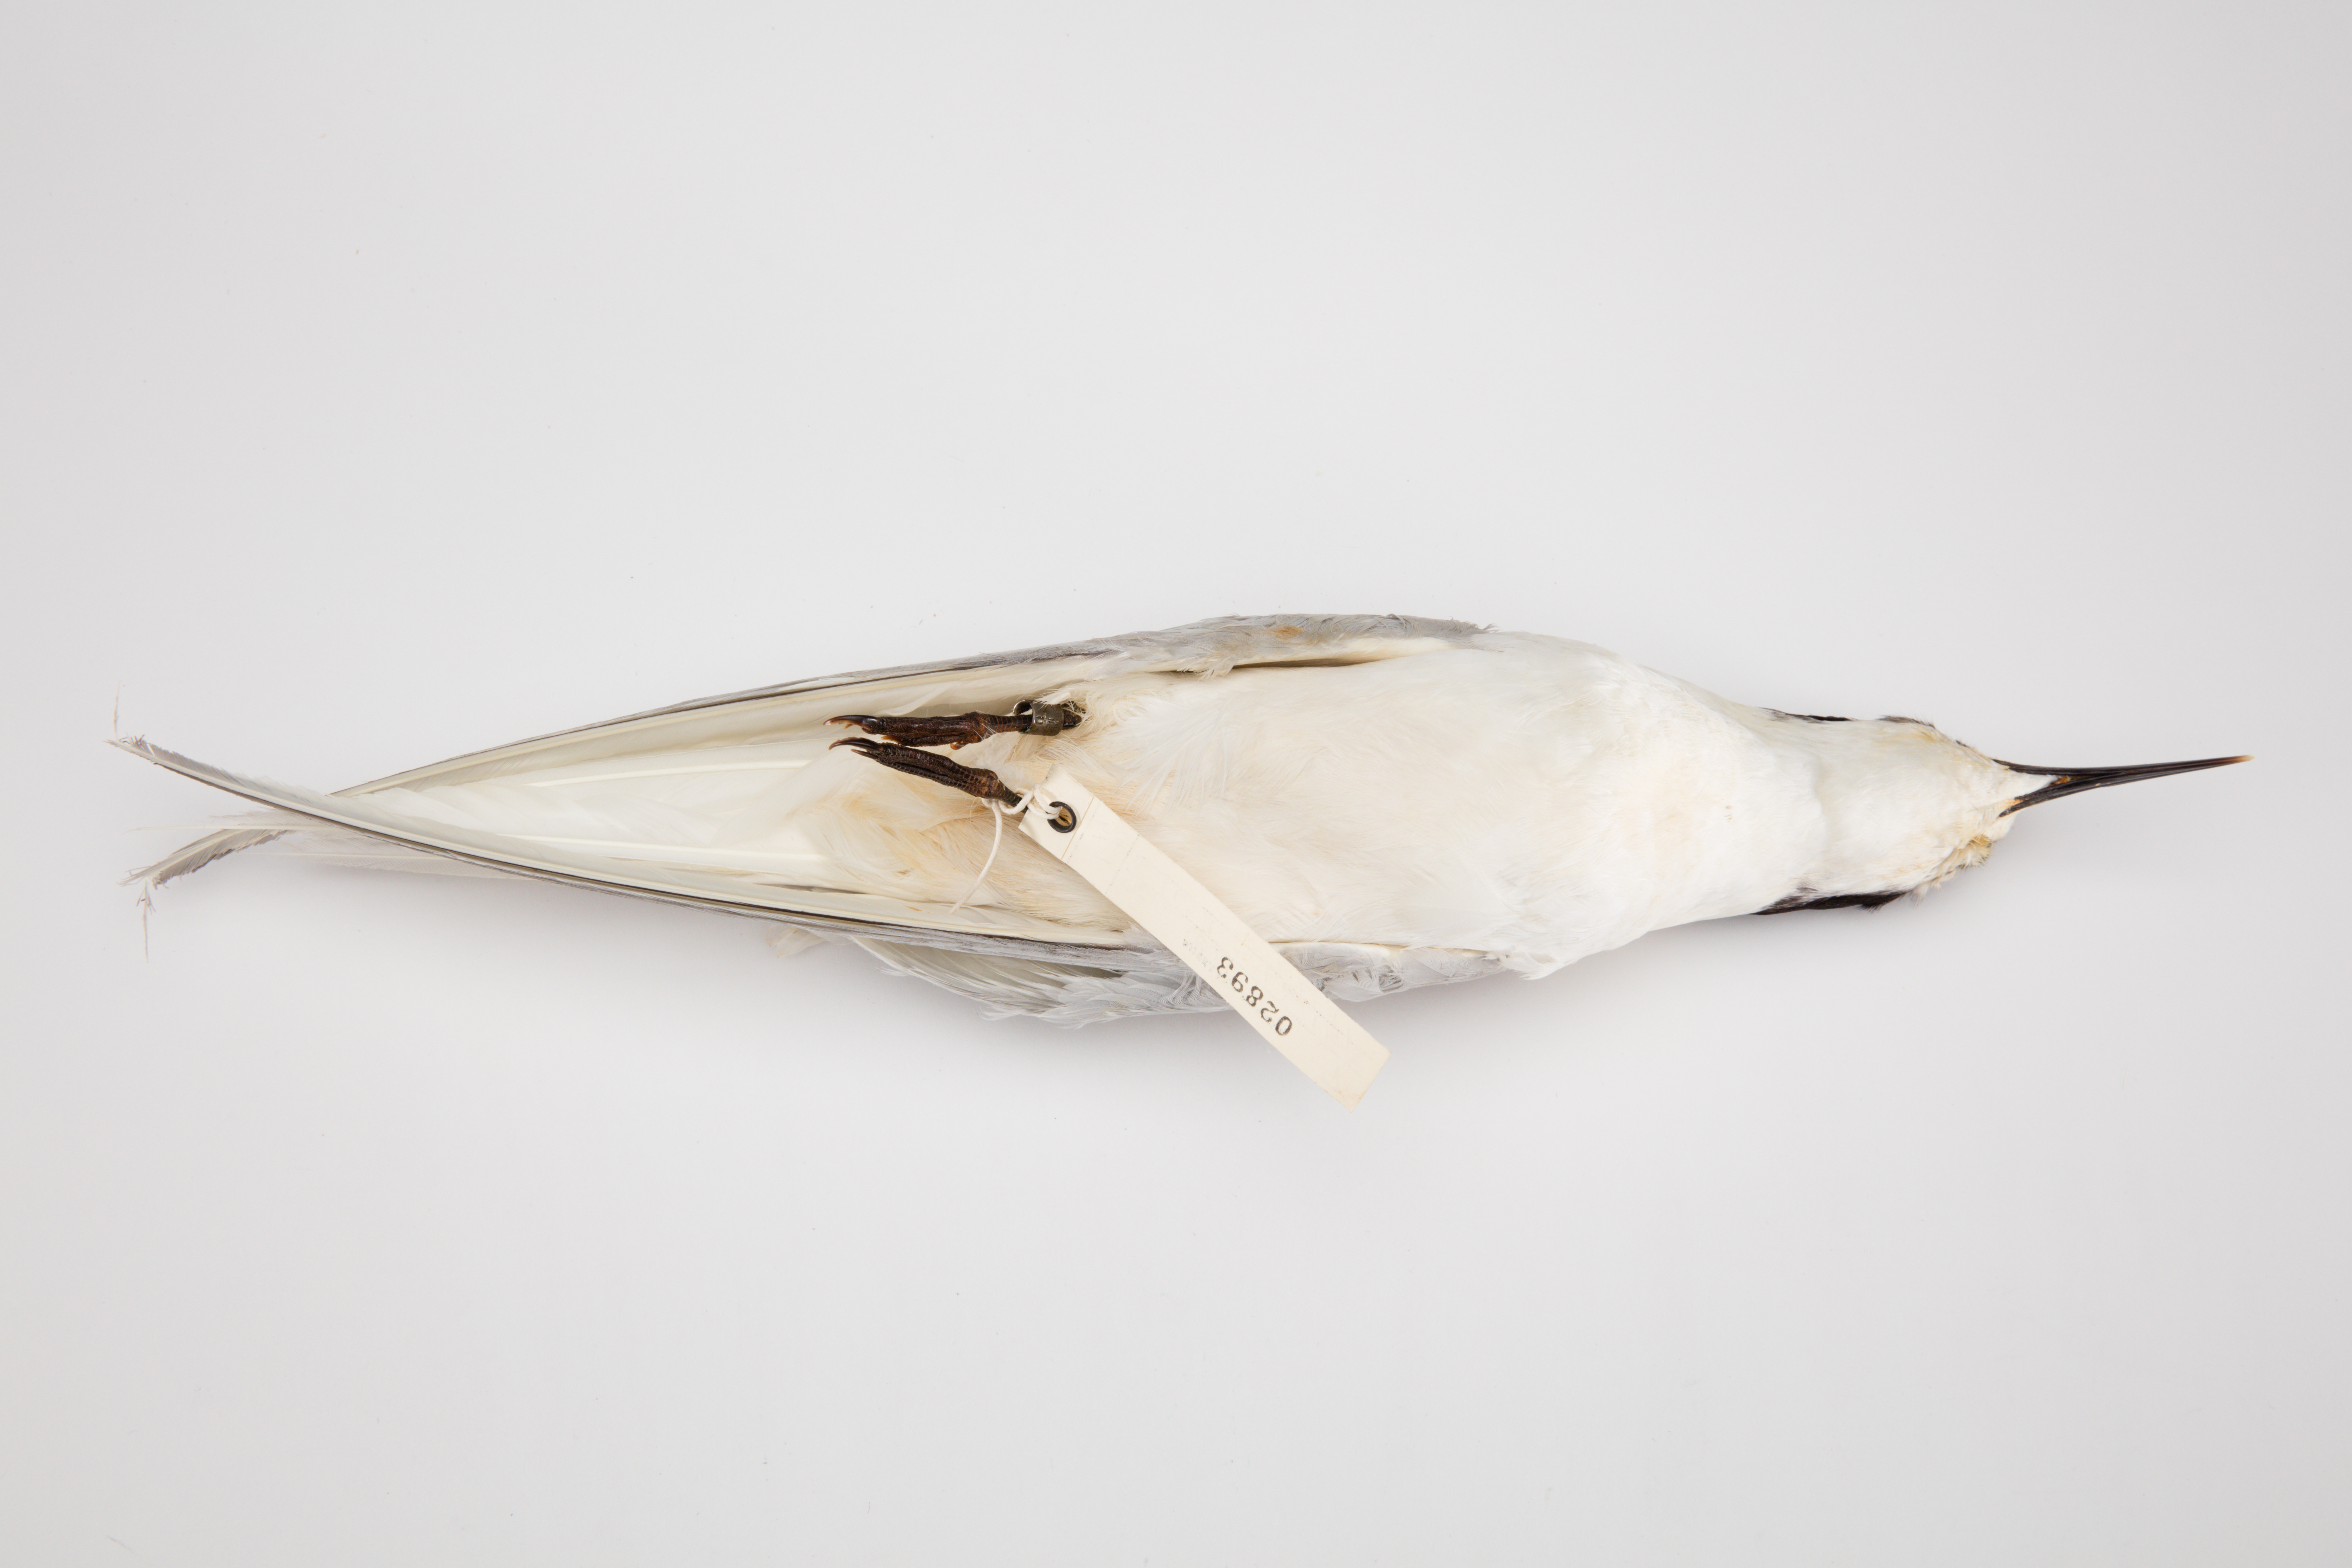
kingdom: Animalia
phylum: Chordata
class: Aves
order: Charadriiformes
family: Laridae
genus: Sterna
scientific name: Sterna striata
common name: White-fronted tern
